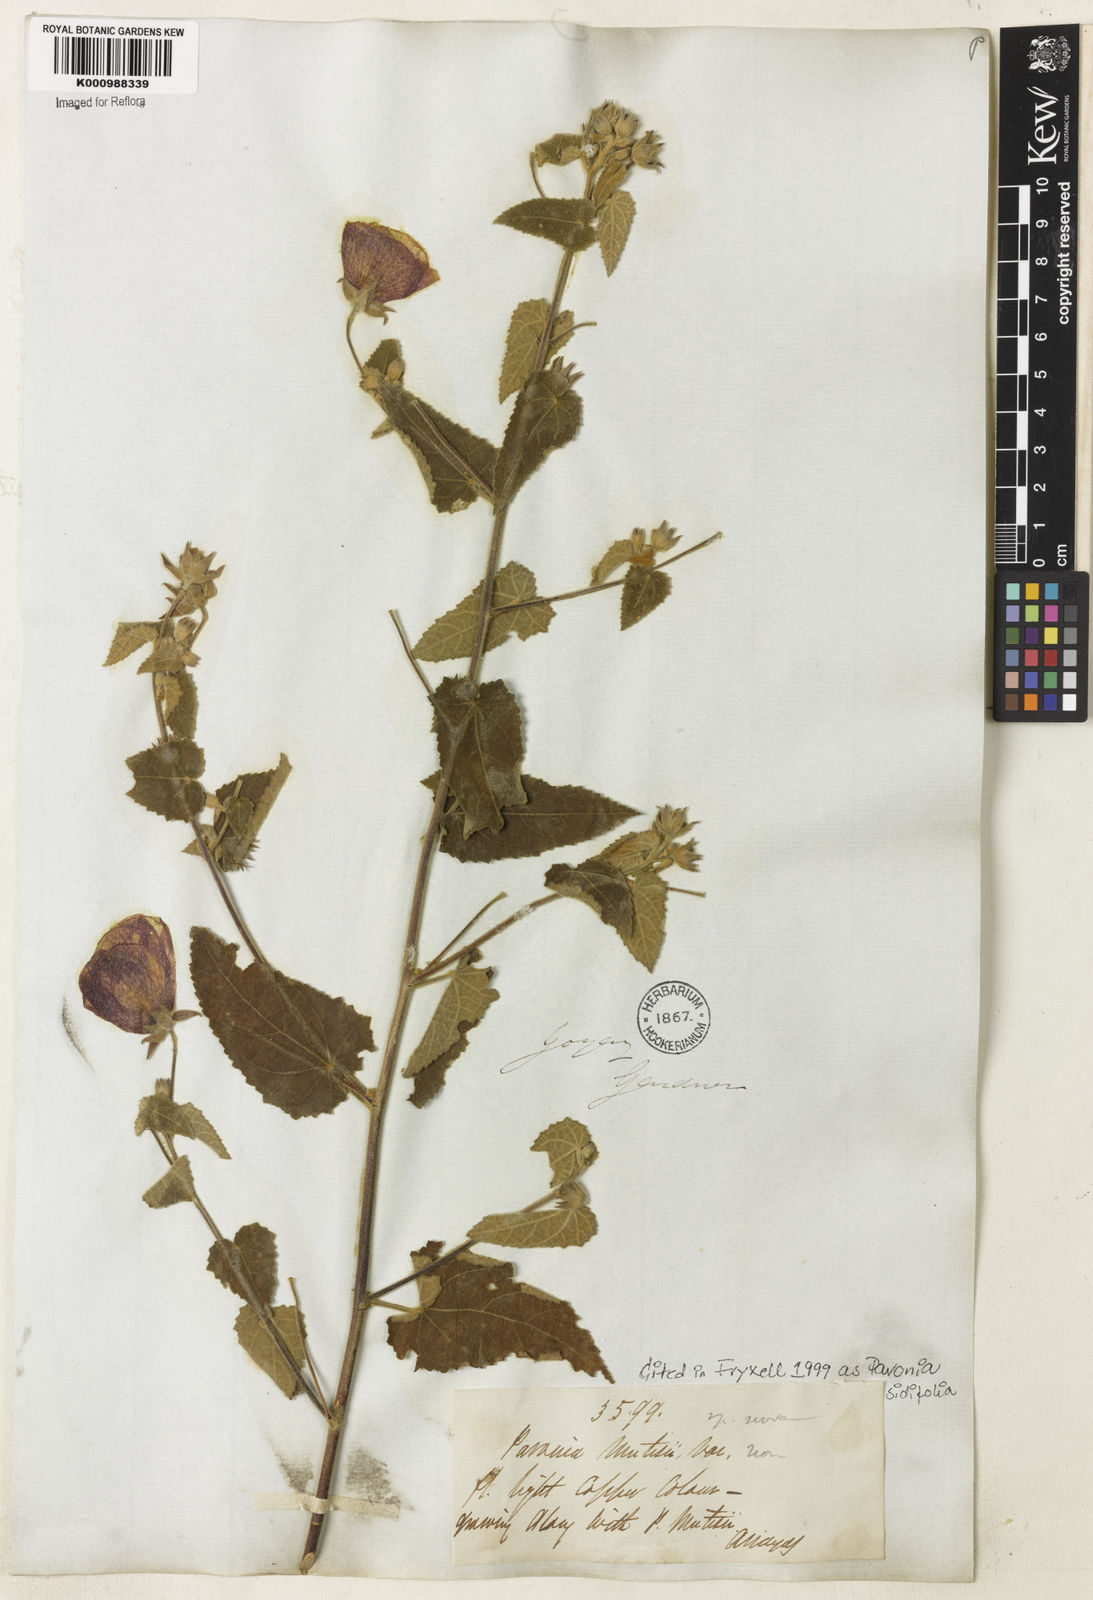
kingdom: Plantae
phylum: Tracheophyta
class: Magnoliopsida
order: Malvales
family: Malvaceae
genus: Pavonia
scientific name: Pavonia sidifolia
